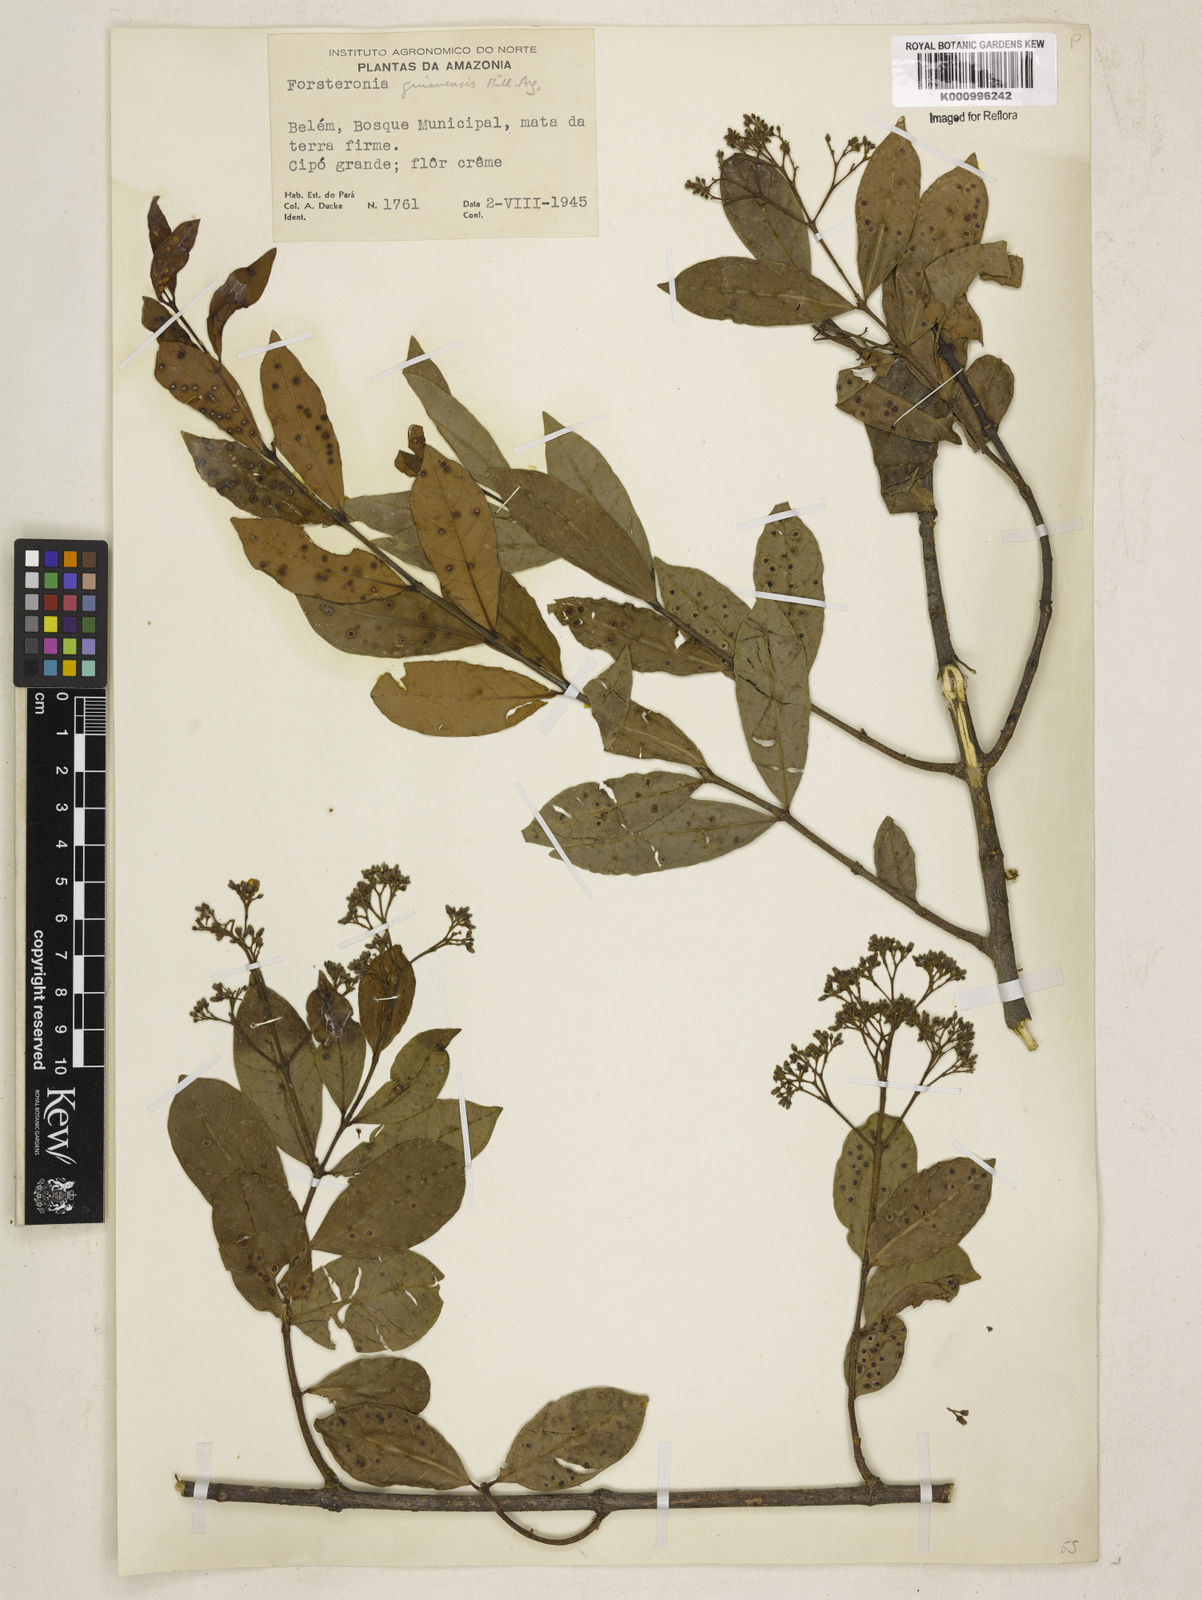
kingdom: Plantae
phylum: Tracheophyta
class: Magnoliopsida
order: Gentianales
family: Apocynaceae
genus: Forsteronia
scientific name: Forsteronia
